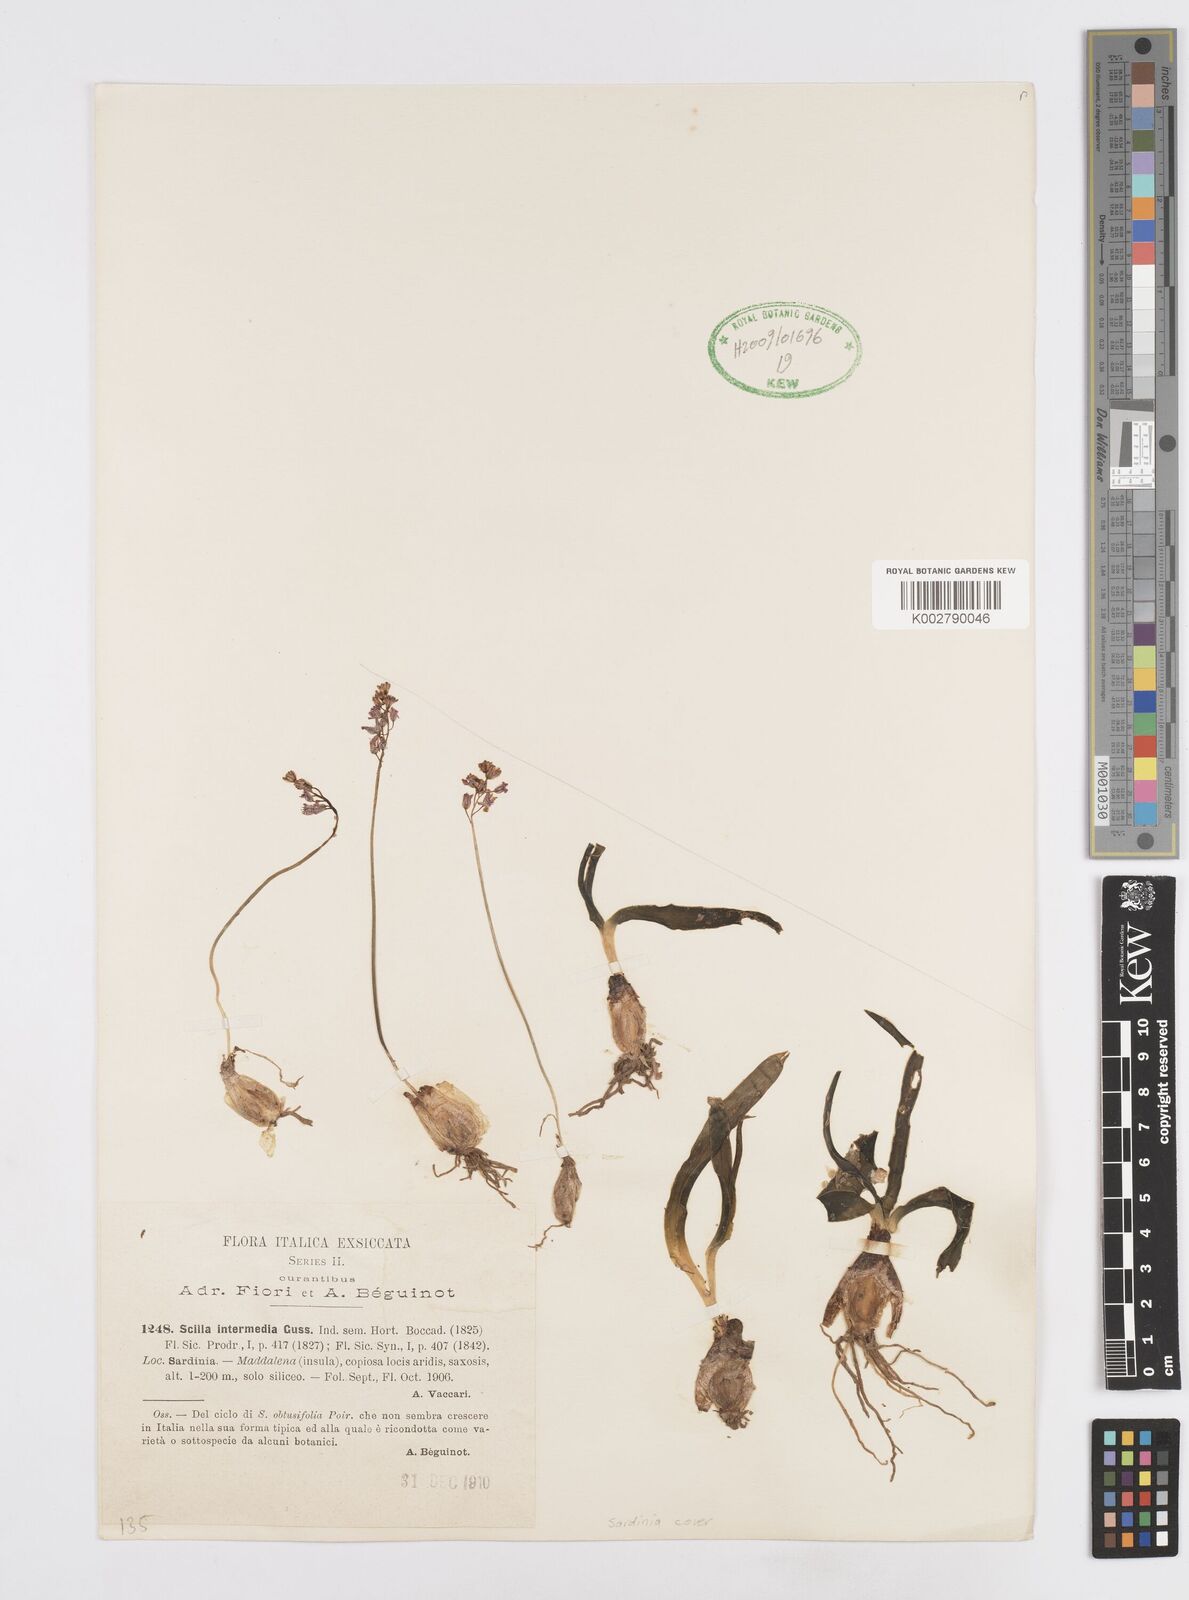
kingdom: Plantae
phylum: Tracheophyta
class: Liliopsida
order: Asparagales
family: Asparagaceae
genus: Prospero
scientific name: Prospero obtusifolium
